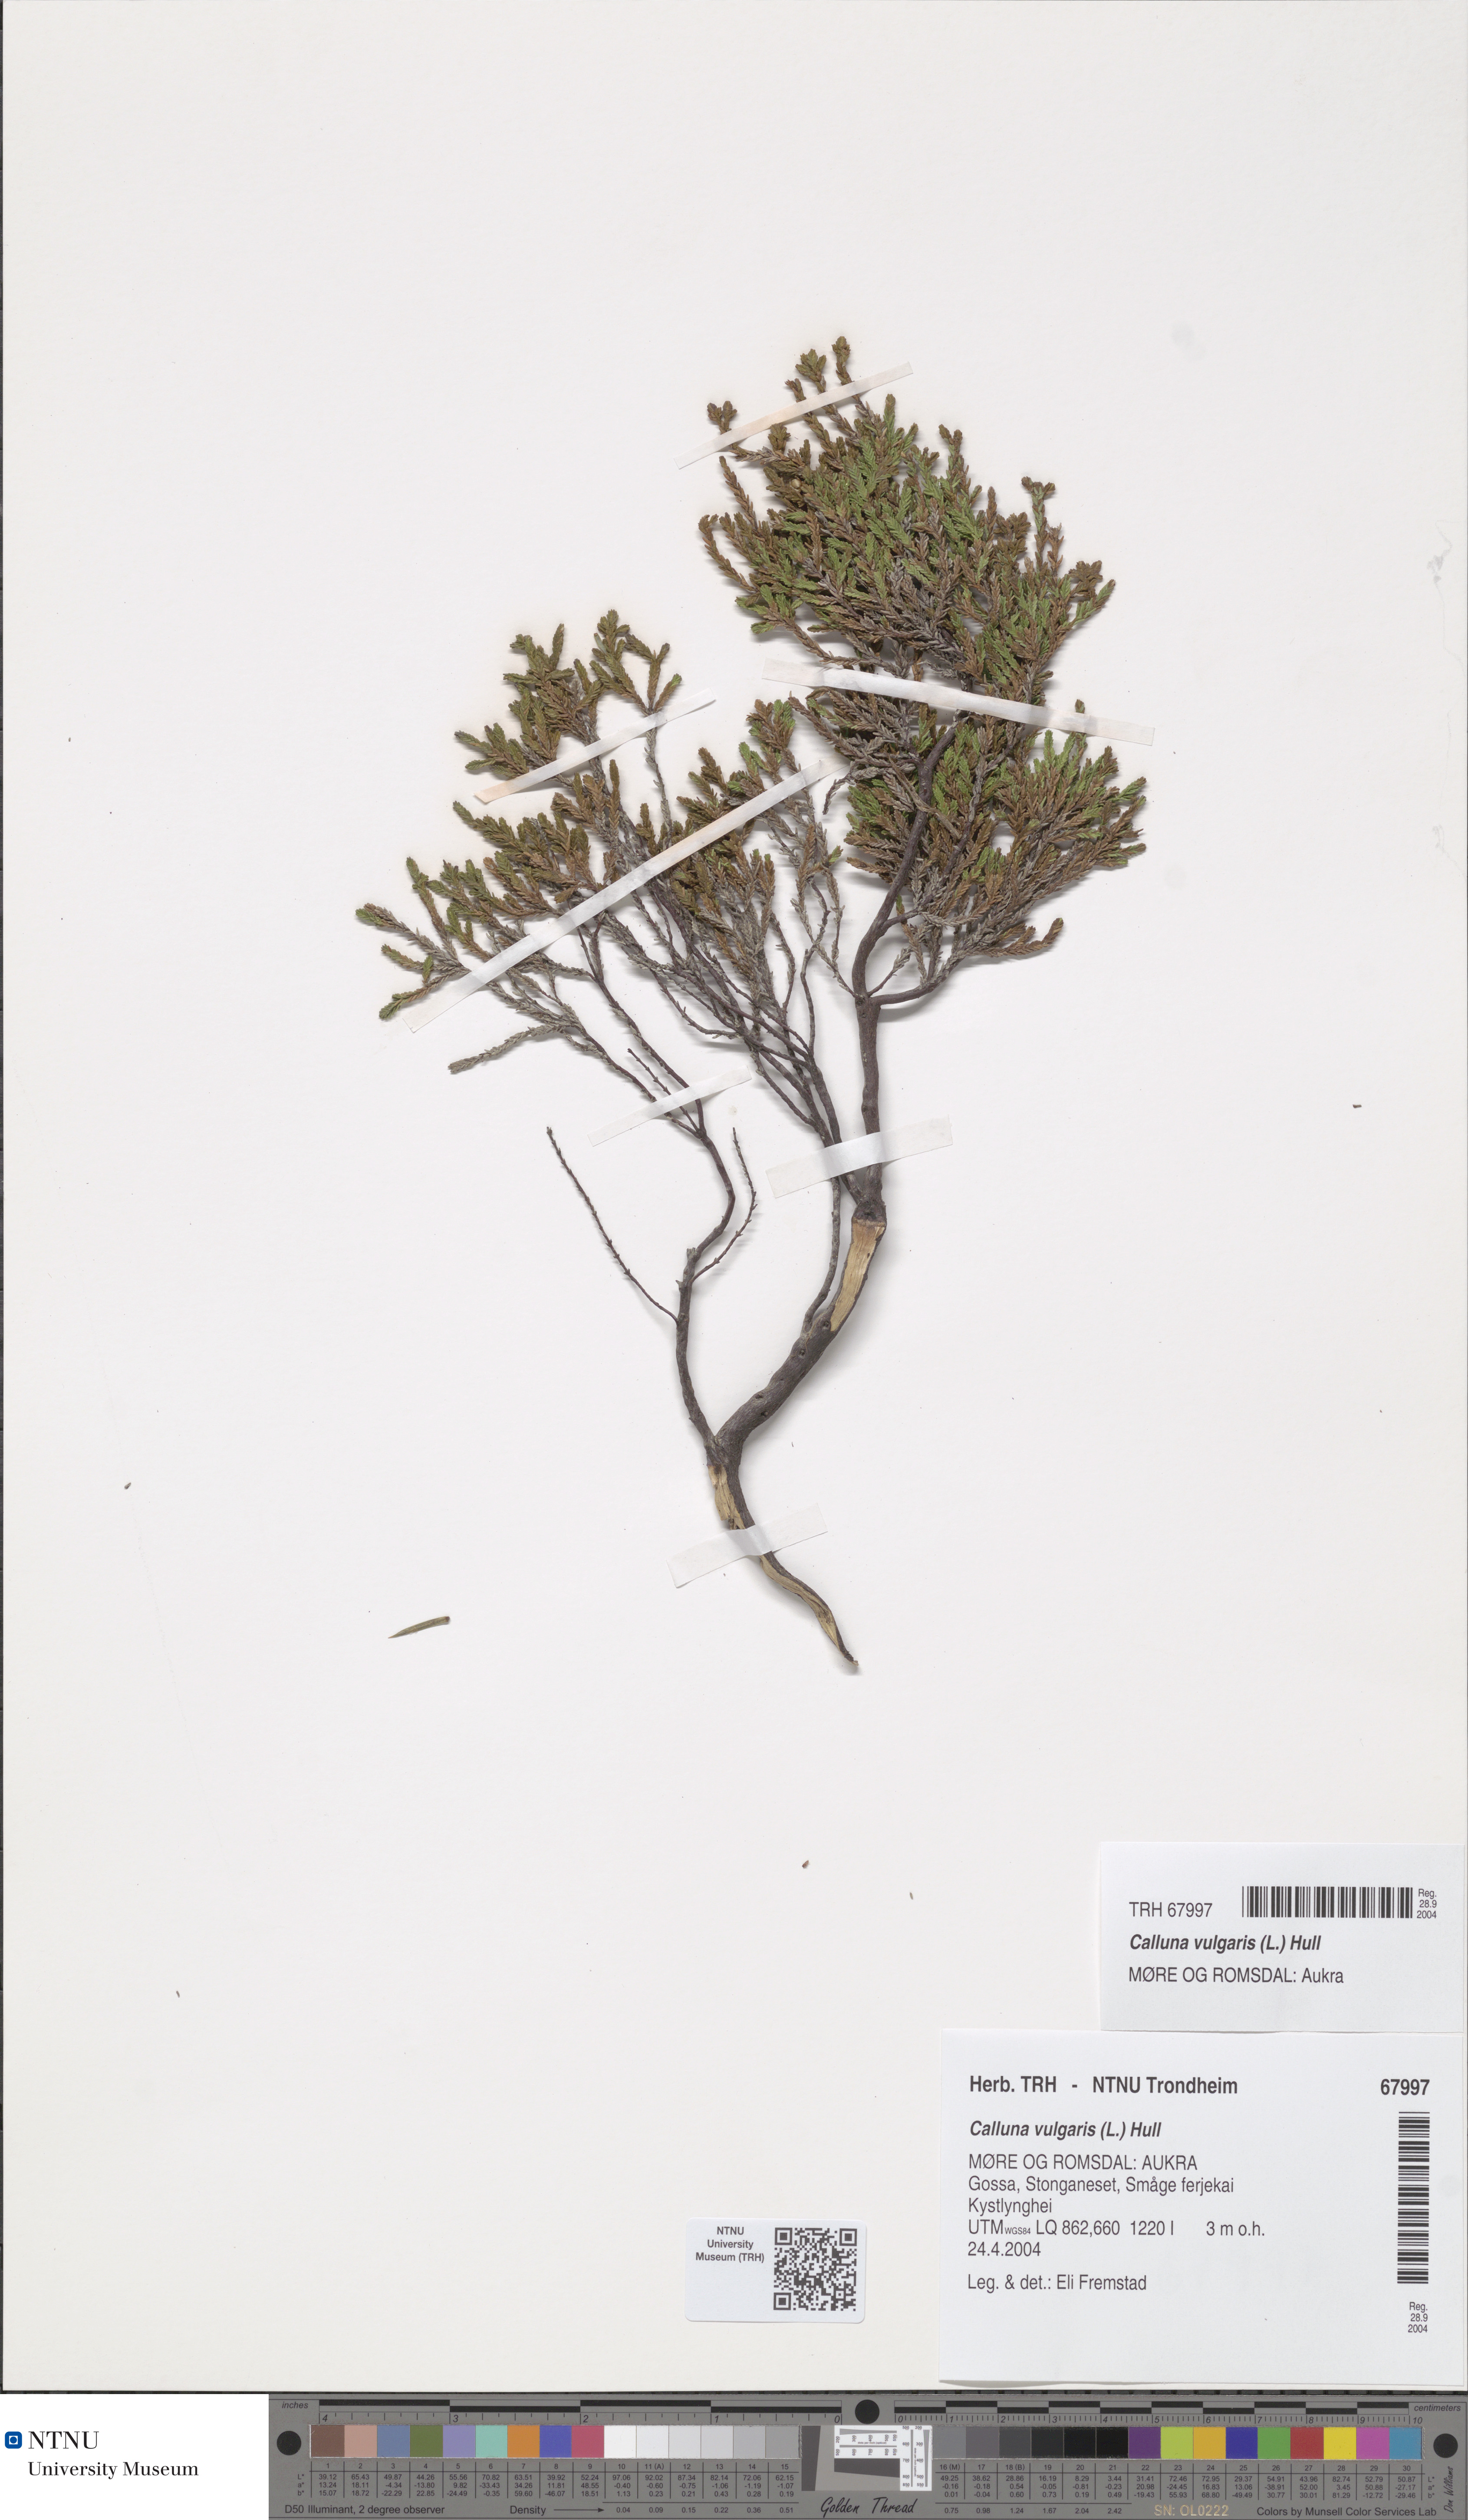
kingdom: Plantae
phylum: Tracheophyta
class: Magnoliopsida
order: Ericales
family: Ericaceae
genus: Calluna
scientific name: Calluna vulgaris
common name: Heather
